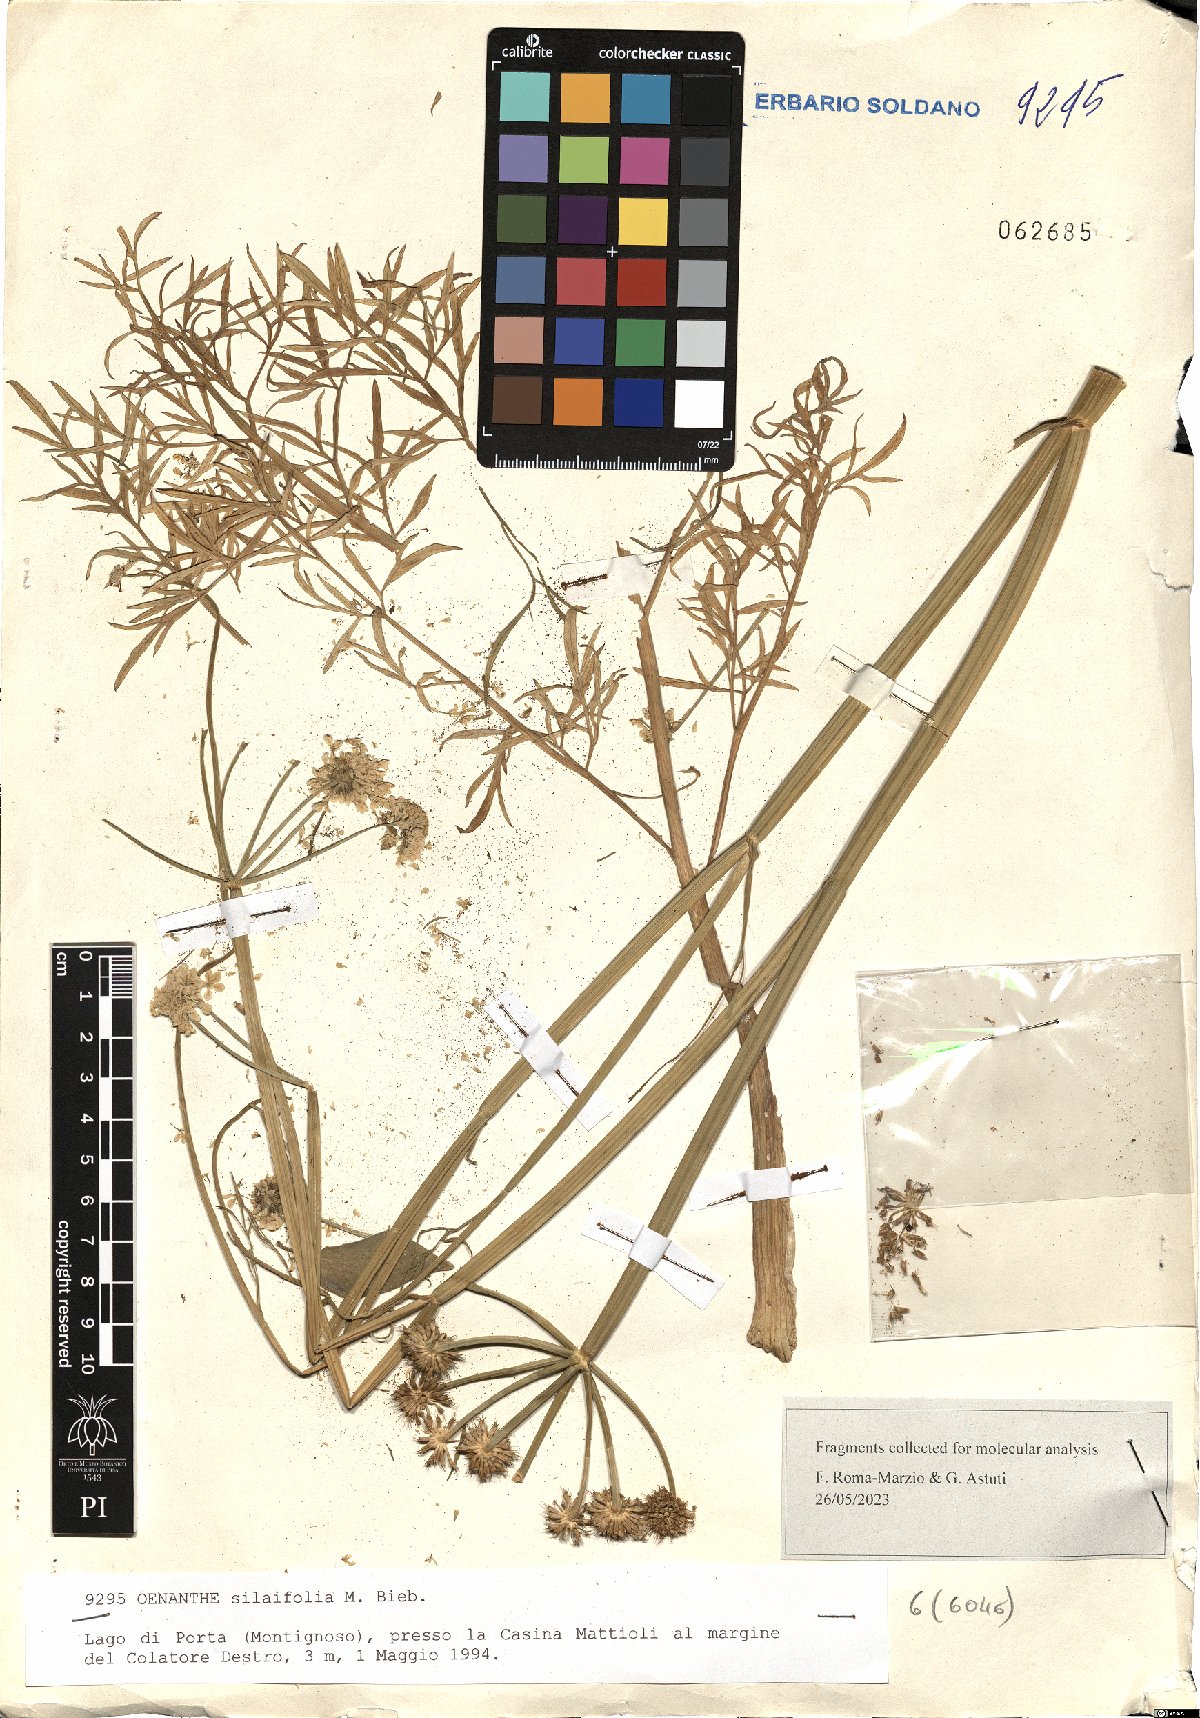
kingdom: Plantae
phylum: Tracheophyta
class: Magnoliopsida
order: Apiales
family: Apiaceae
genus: Oenanthe
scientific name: Oenanthe silaifolia
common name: Narrow-leaved water-dropwort
